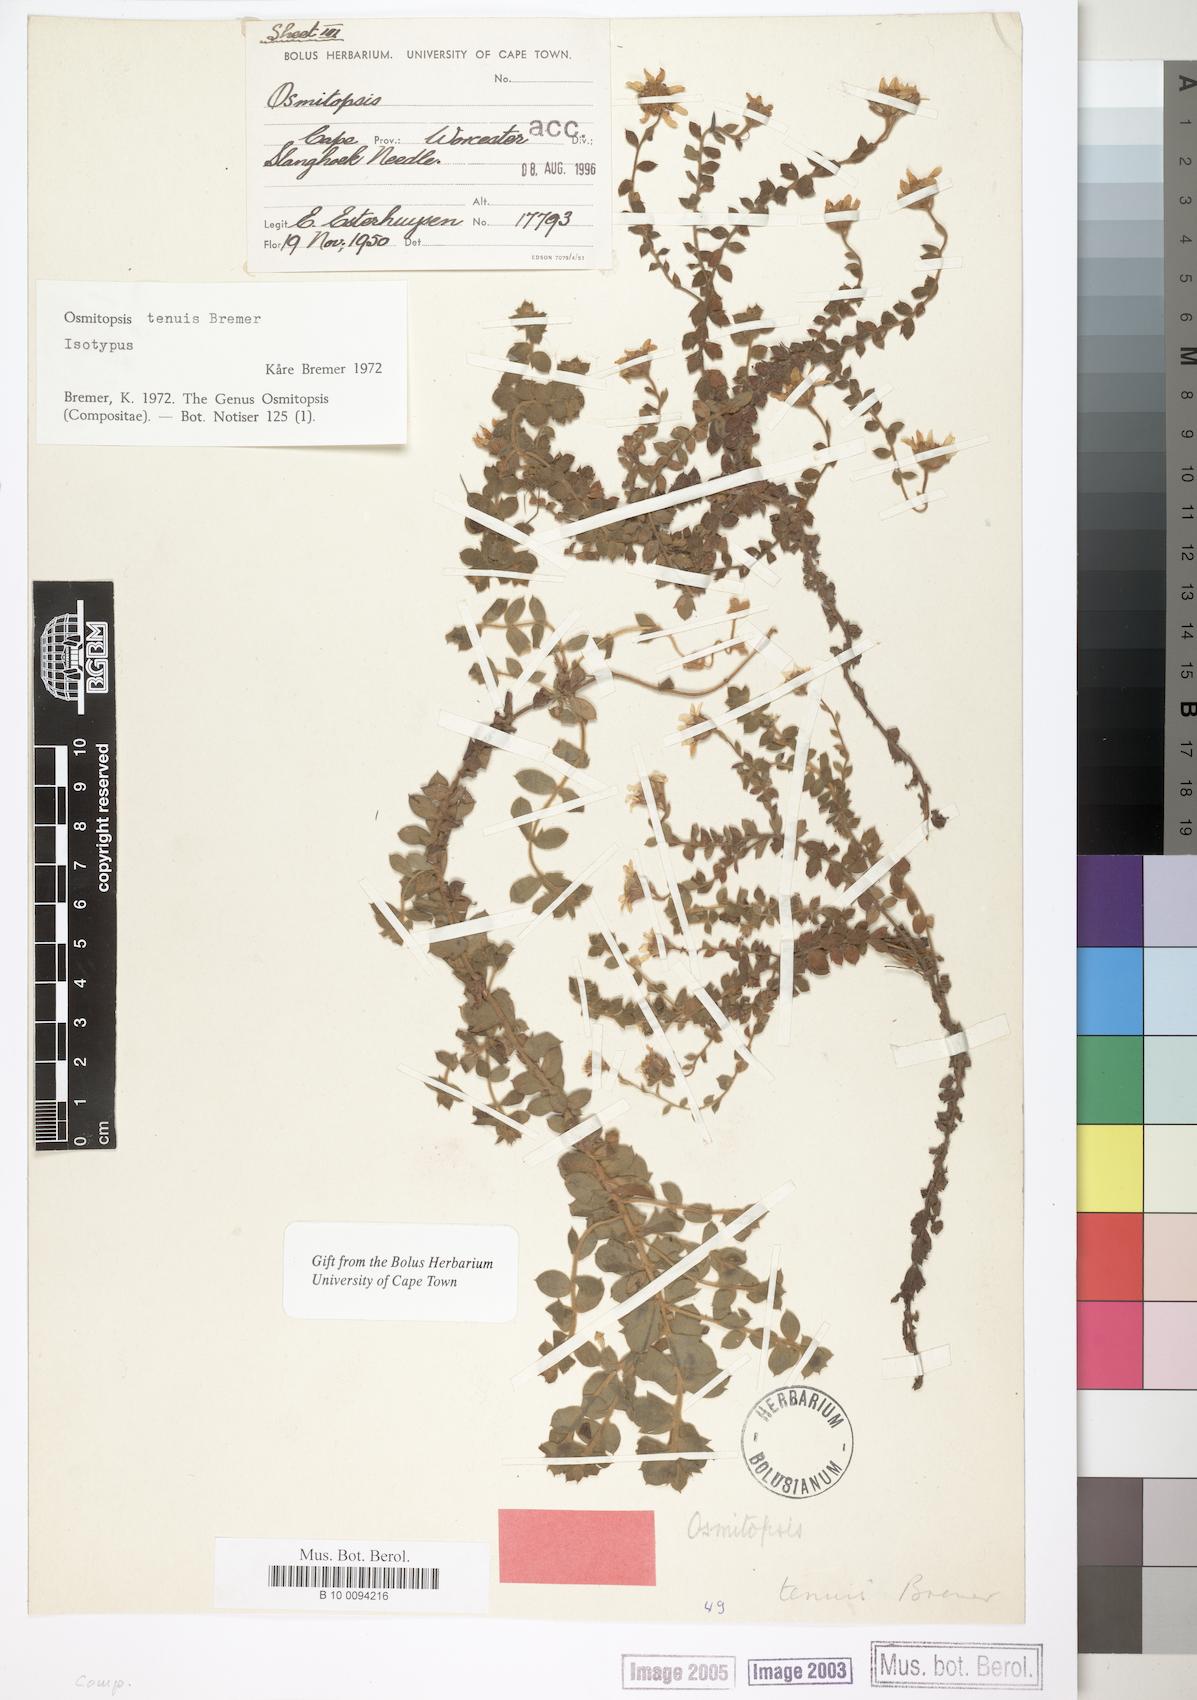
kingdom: Plantae
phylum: Tracheophyta
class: Magnoliopsida
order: Asterales
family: Asteraceae
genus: Osmitopsis
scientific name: Osmitopsis tenuis
